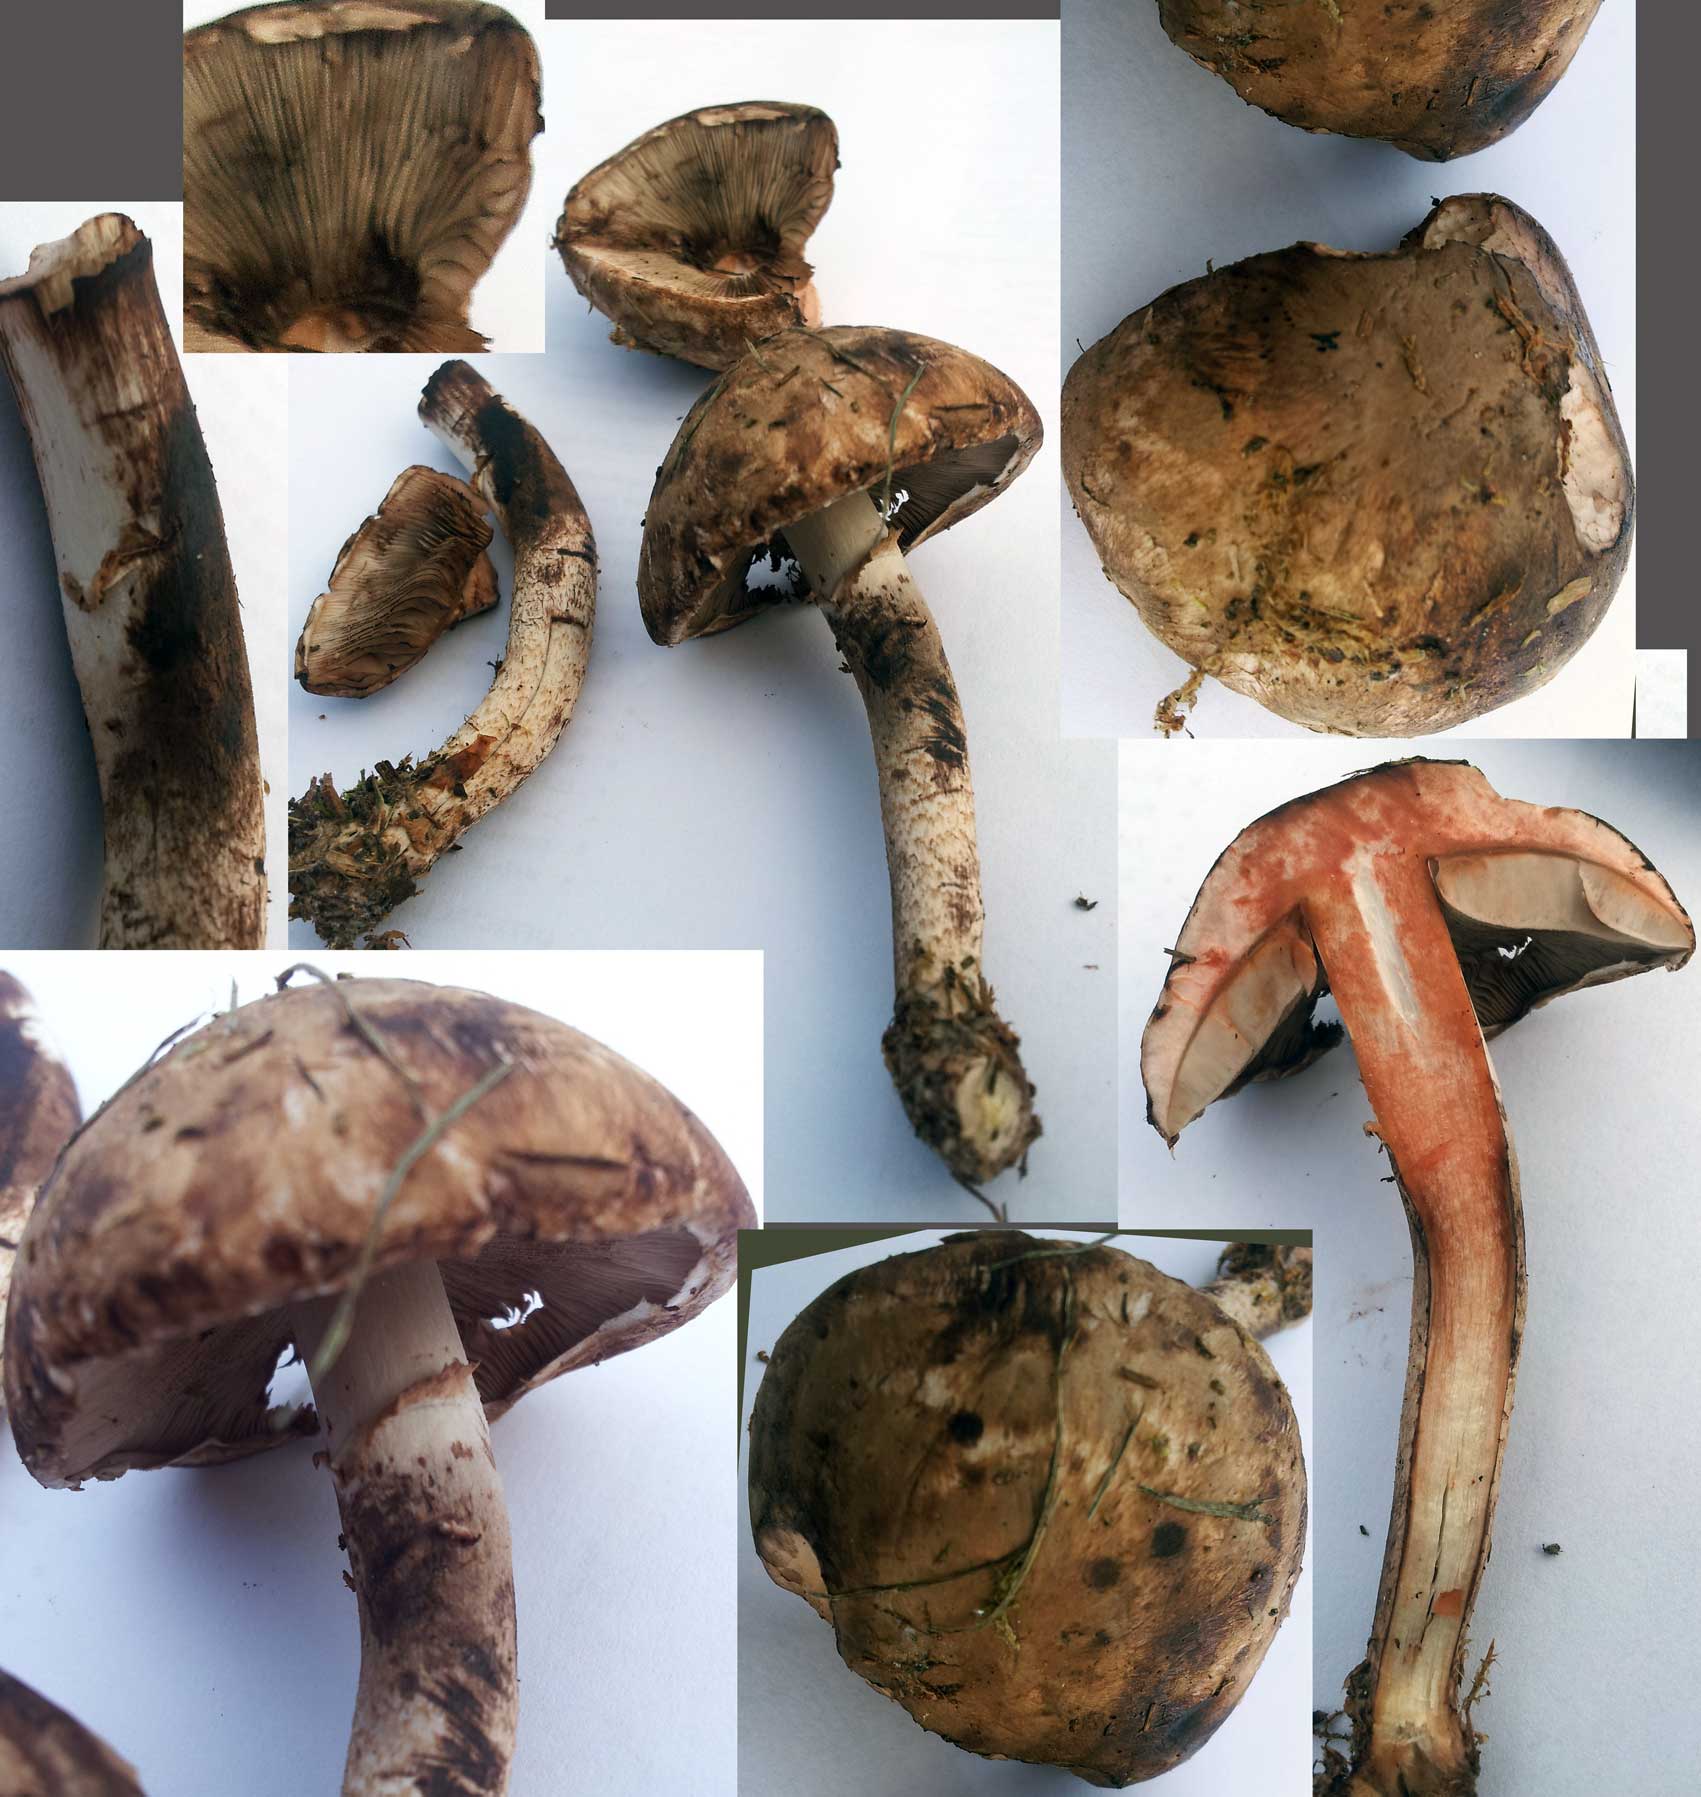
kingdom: Fungi
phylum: Basidiomycota
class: Agaricomycetes
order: Agaricales
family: Agaricaceae
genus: Agaricus
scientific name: Agaricus sylvaticus
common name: lille blod-champignon
